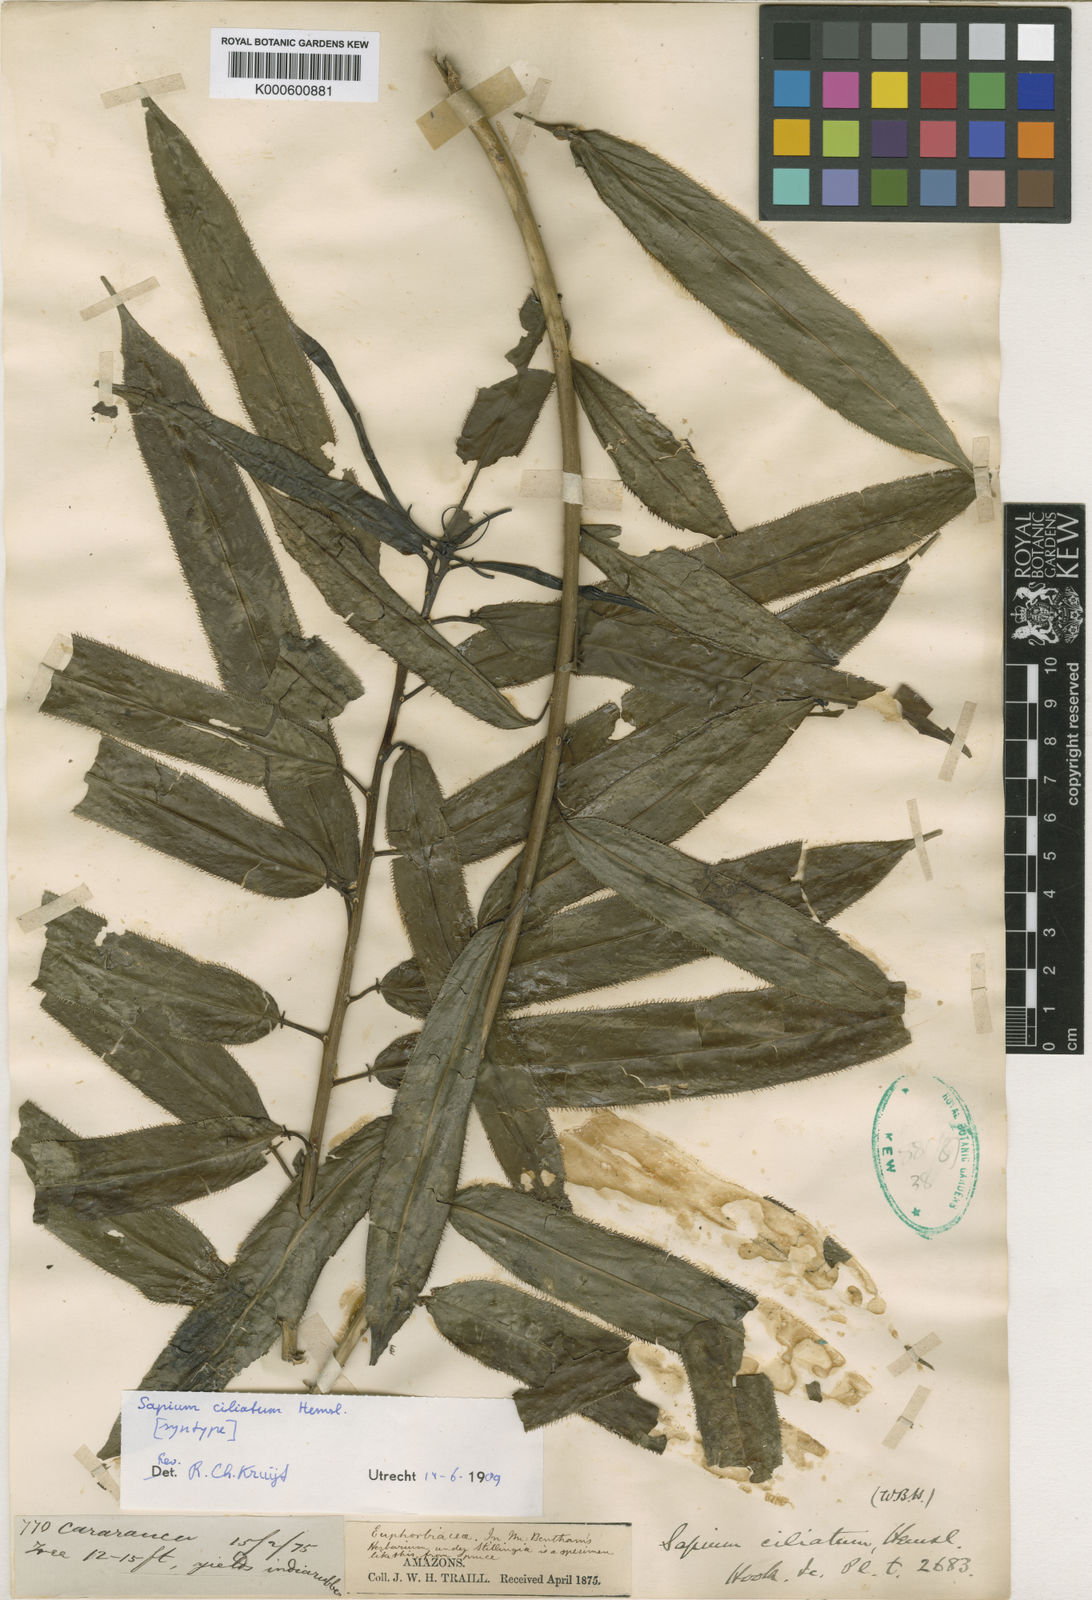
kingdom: Plantae
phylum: Tracheophyta
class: Magnoliopsida
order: Malpighiales
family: Euphorbiaceae
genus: Sapium
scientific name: Sapium ciliatum
